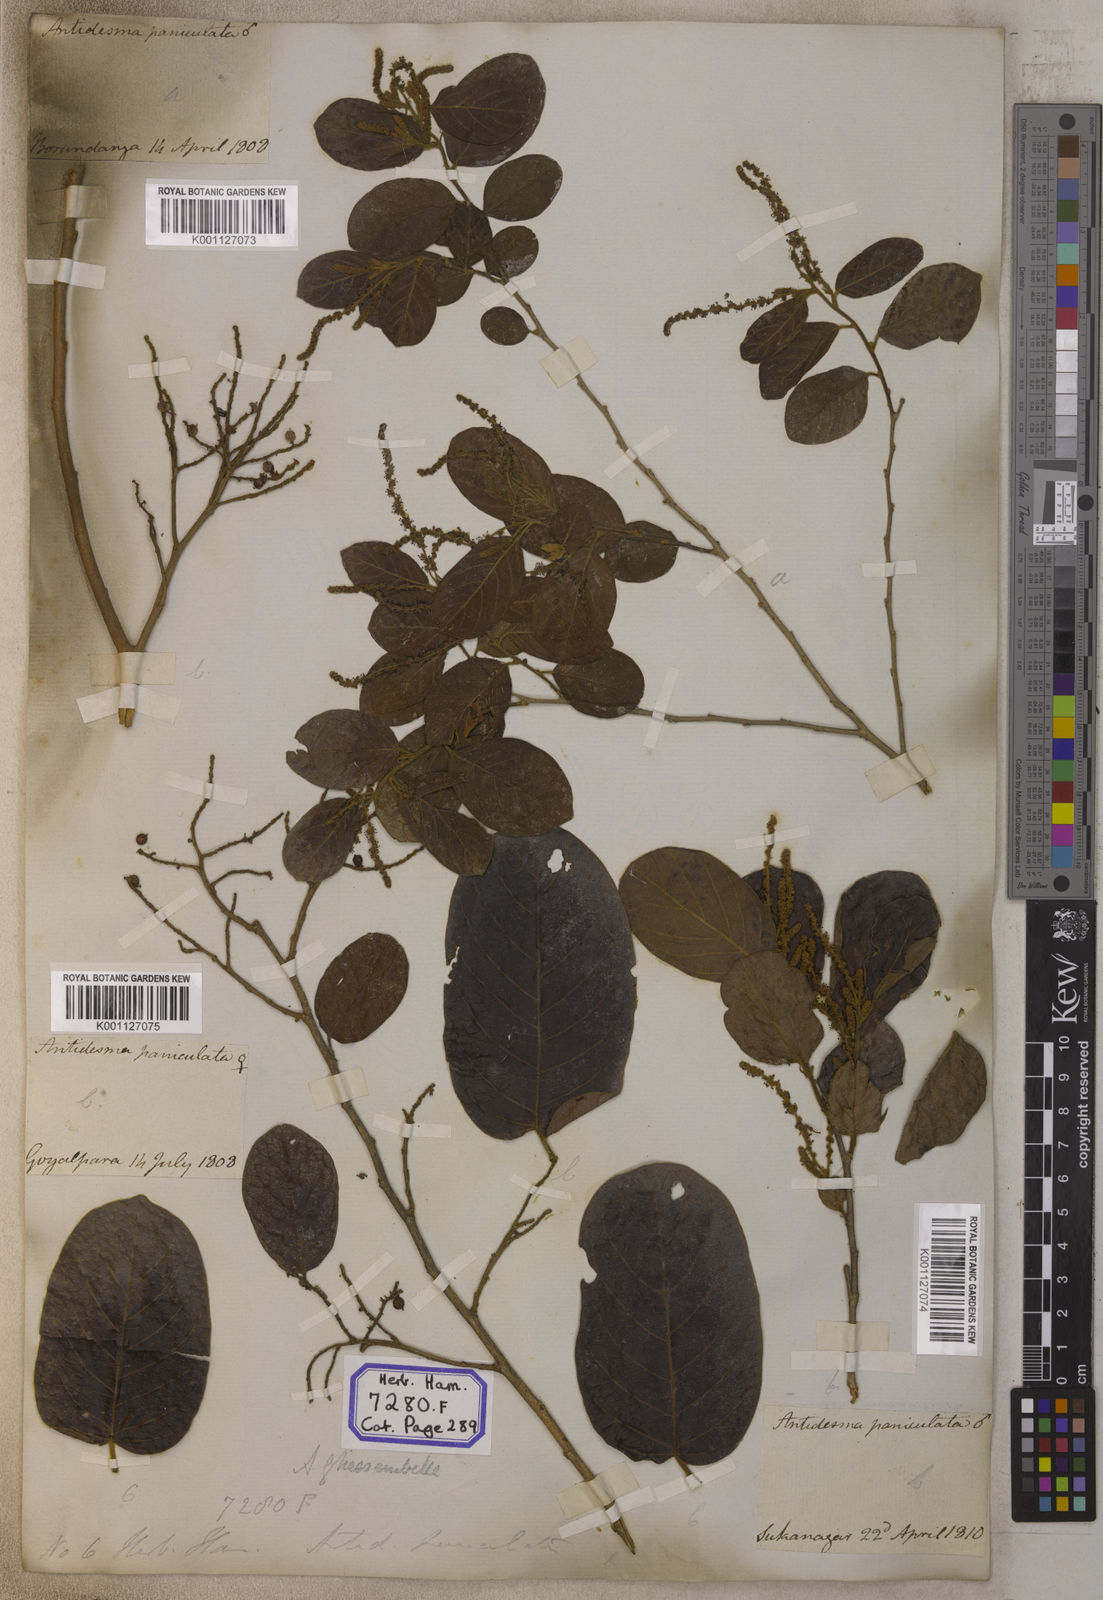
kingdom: Plantae
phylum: Tracheophyta
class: Magnoliopsida
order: Malpighiales
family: Phyllanthaceae
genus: Antidesma
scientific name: Antidesma
